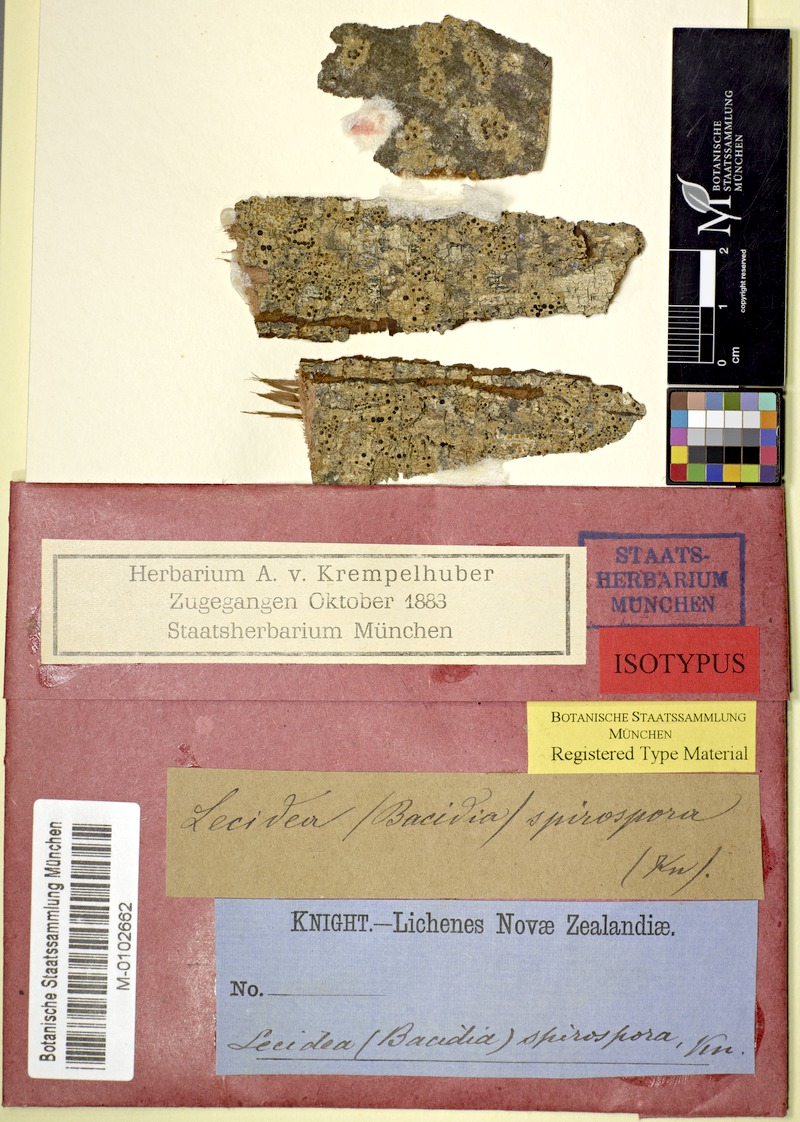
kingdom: Fungi
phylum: Ascomycota
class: Lecanoromycetes
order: Lecanorales
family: Ramalinaceae
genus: Bacidia
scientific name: Bacidia wellingtonii
